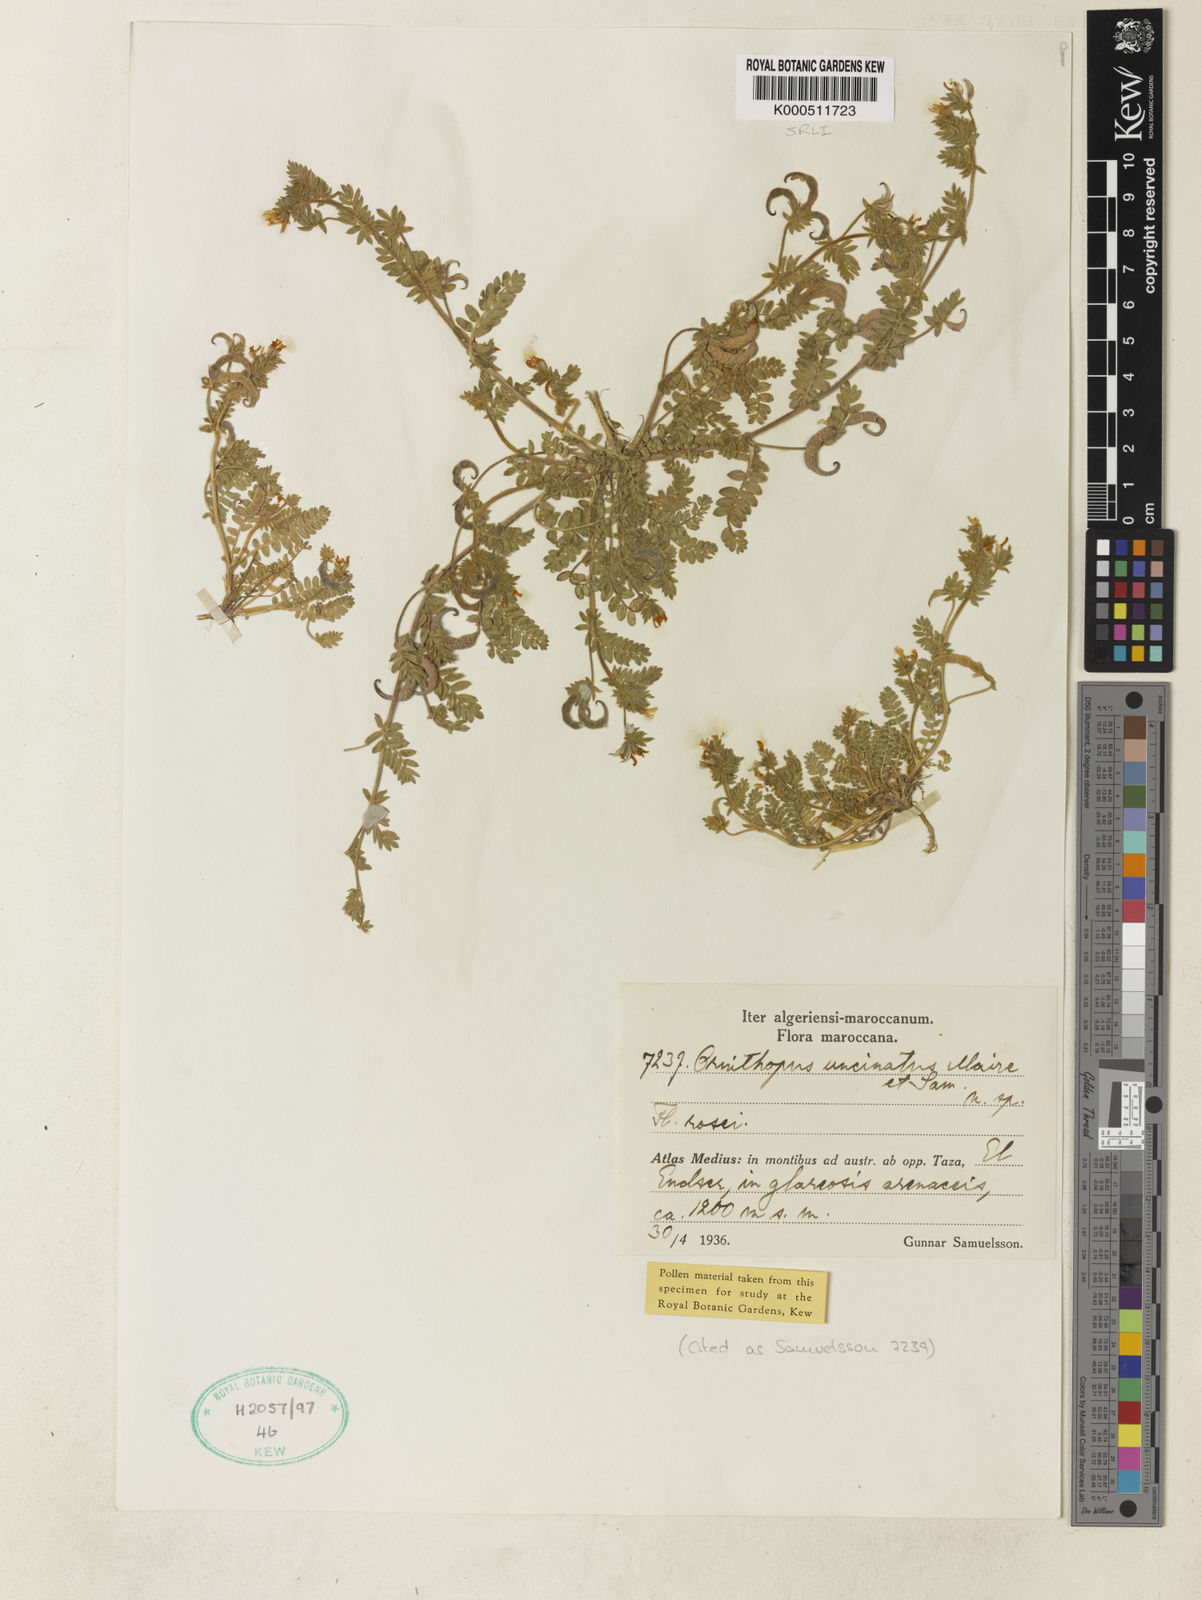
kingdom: Plantae
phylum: Tracheophyta
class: Magnoliopsida
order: Fabales
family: Fabaceae
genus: Ornithopus
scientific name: Ornithopus uncinatus
